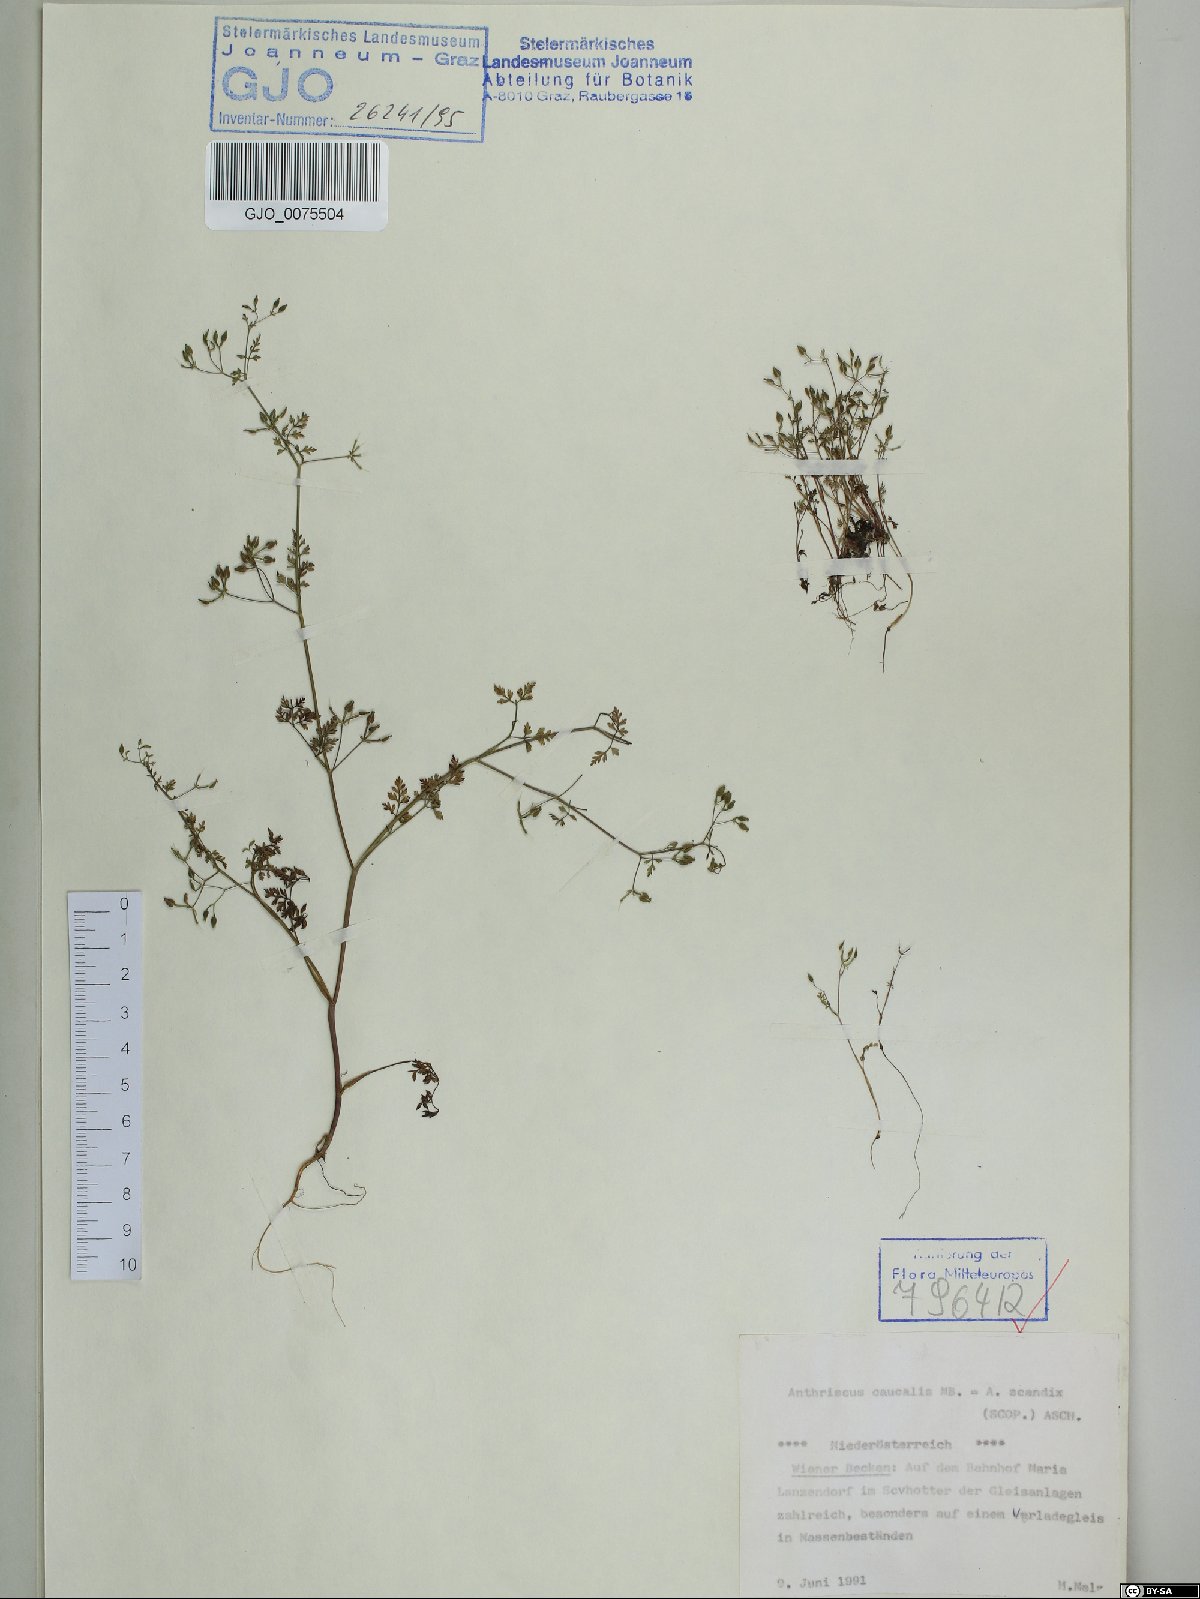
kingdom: Plantae
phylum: Tracheophyta
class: Magnoliopsida
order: Apiales
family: Apiaceae
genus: Anthriscus
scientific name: Anthriscus caucalis
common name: Bur chervil
